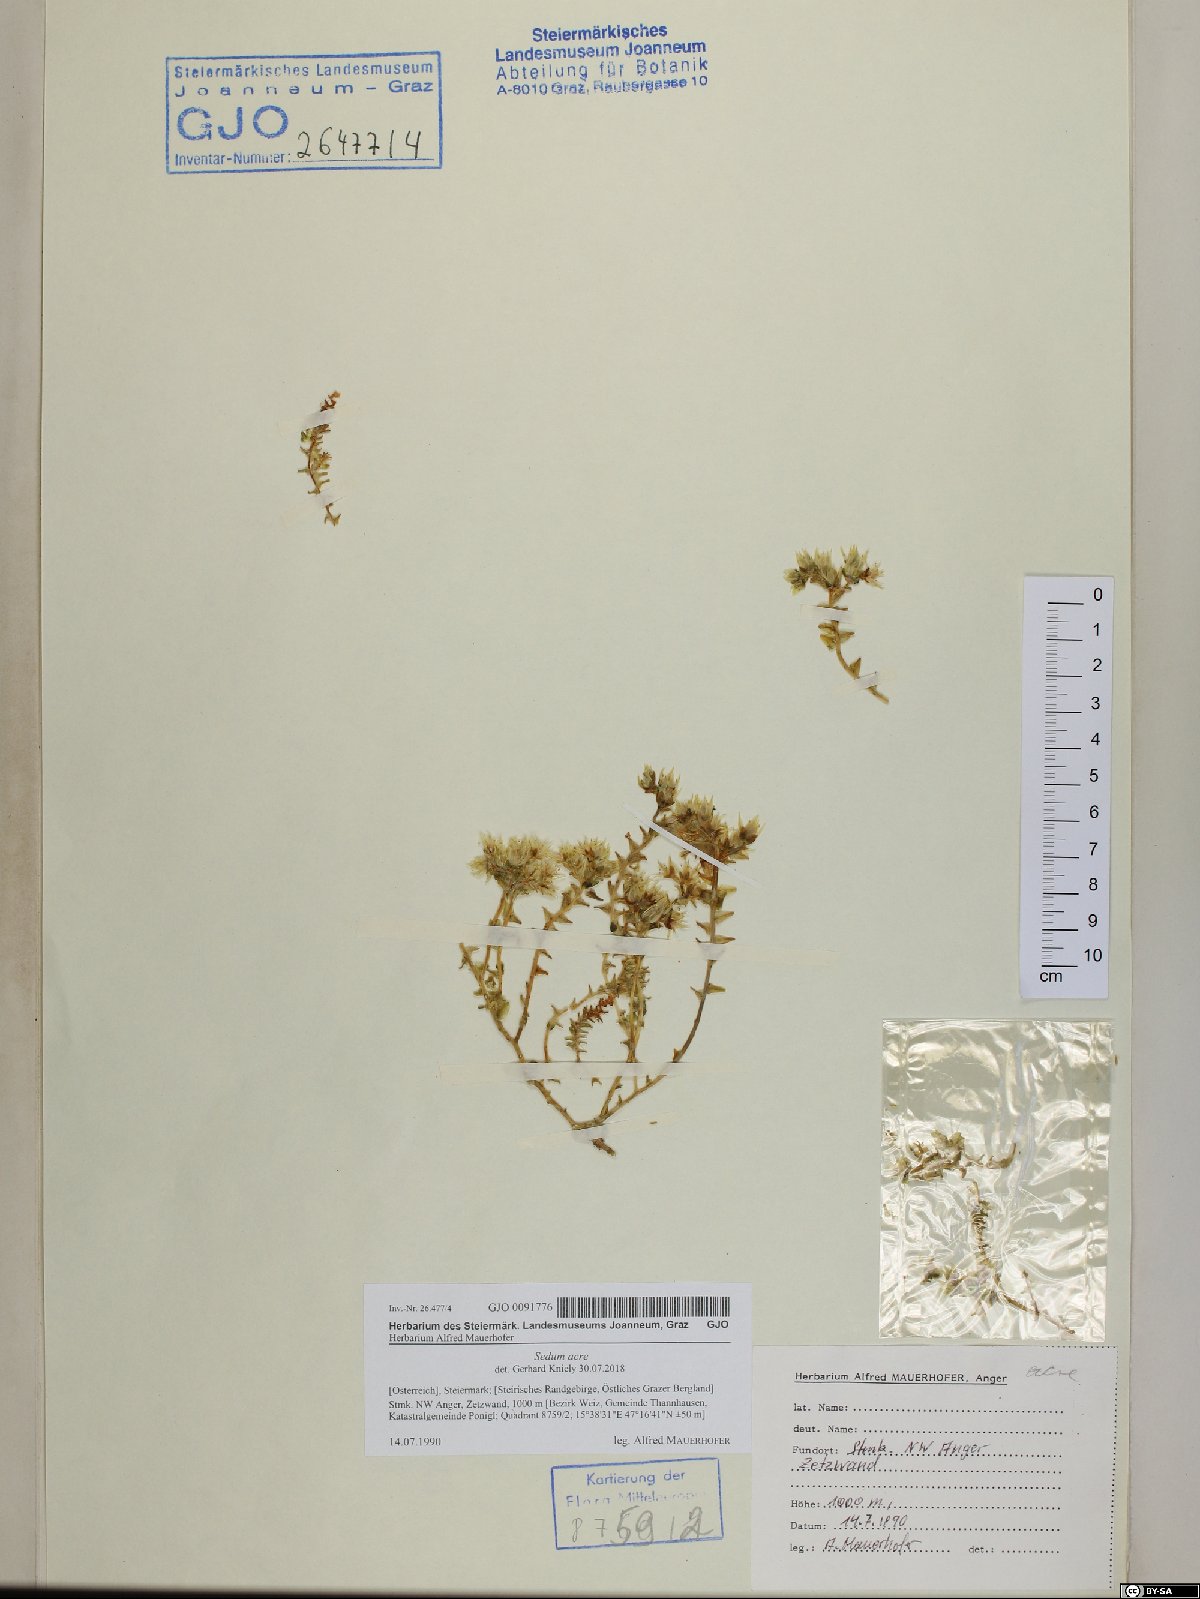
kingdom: Plantae
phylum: Tracheophyta
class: Magnoliopsida
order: Saxifragales
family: Crassulaceae
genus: Sedum
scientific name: Sedum acre
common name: Biting stonecrop
